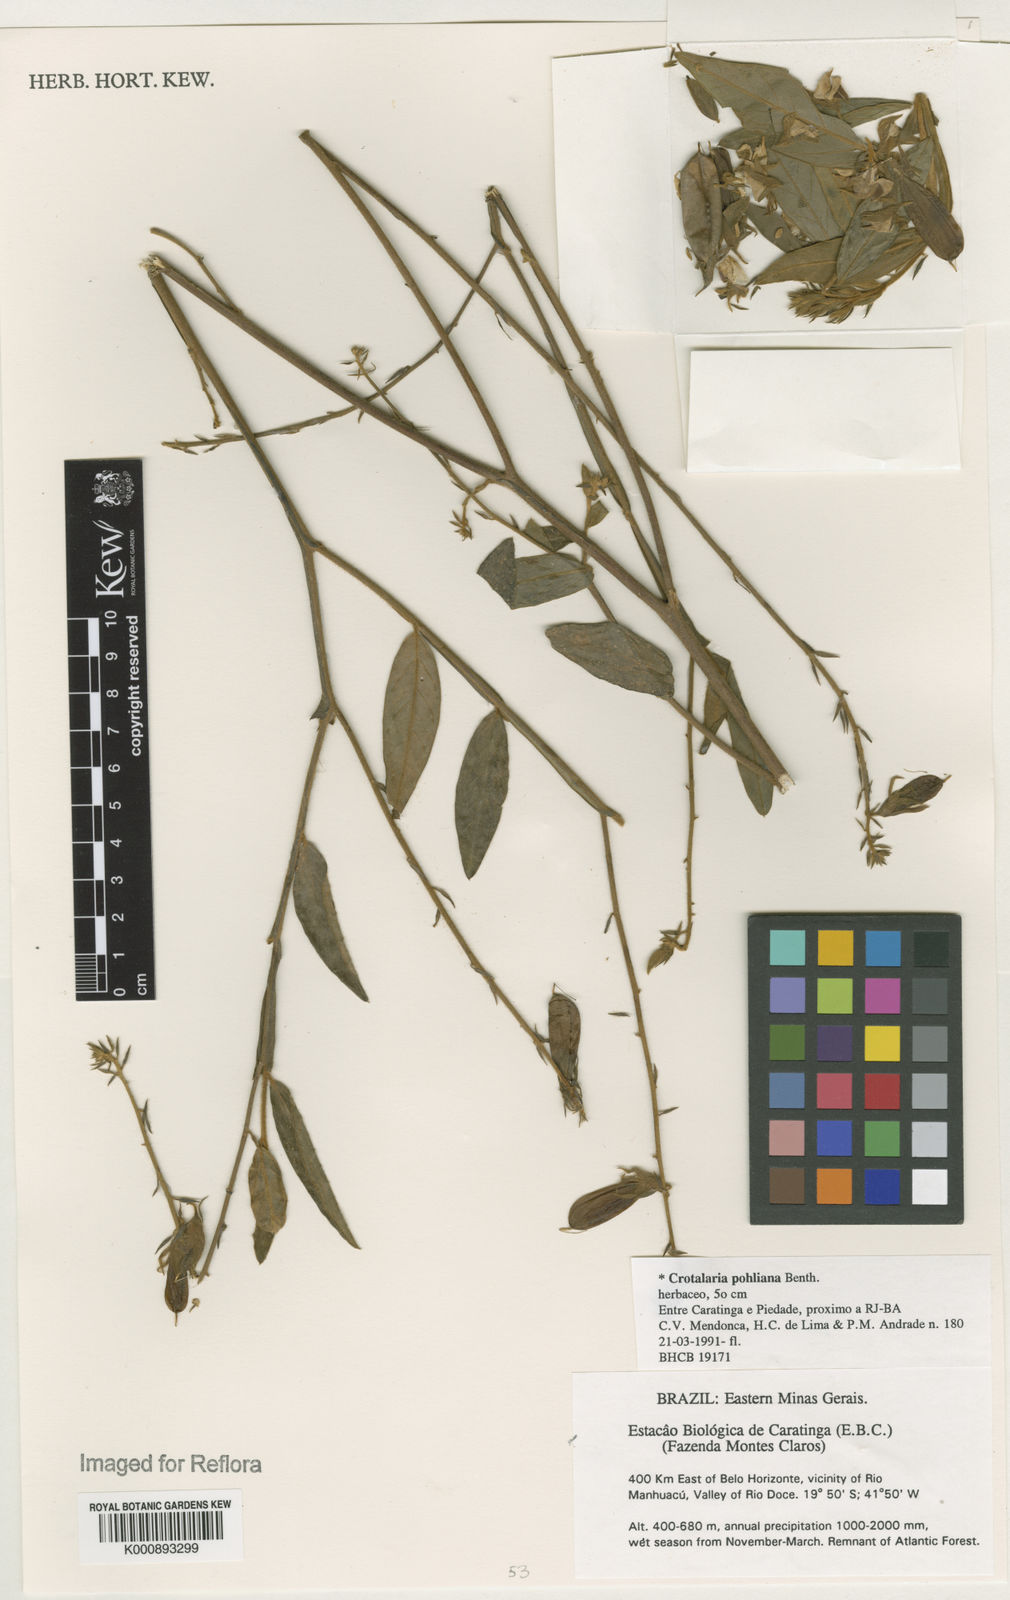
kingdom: Plantae
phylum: Tracheophyta
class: Magnoliopsida
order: Fabales
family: Fabaceae
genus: Crotalaria
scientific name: Crotalaria breviflora
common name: Short-flower crotalaria
